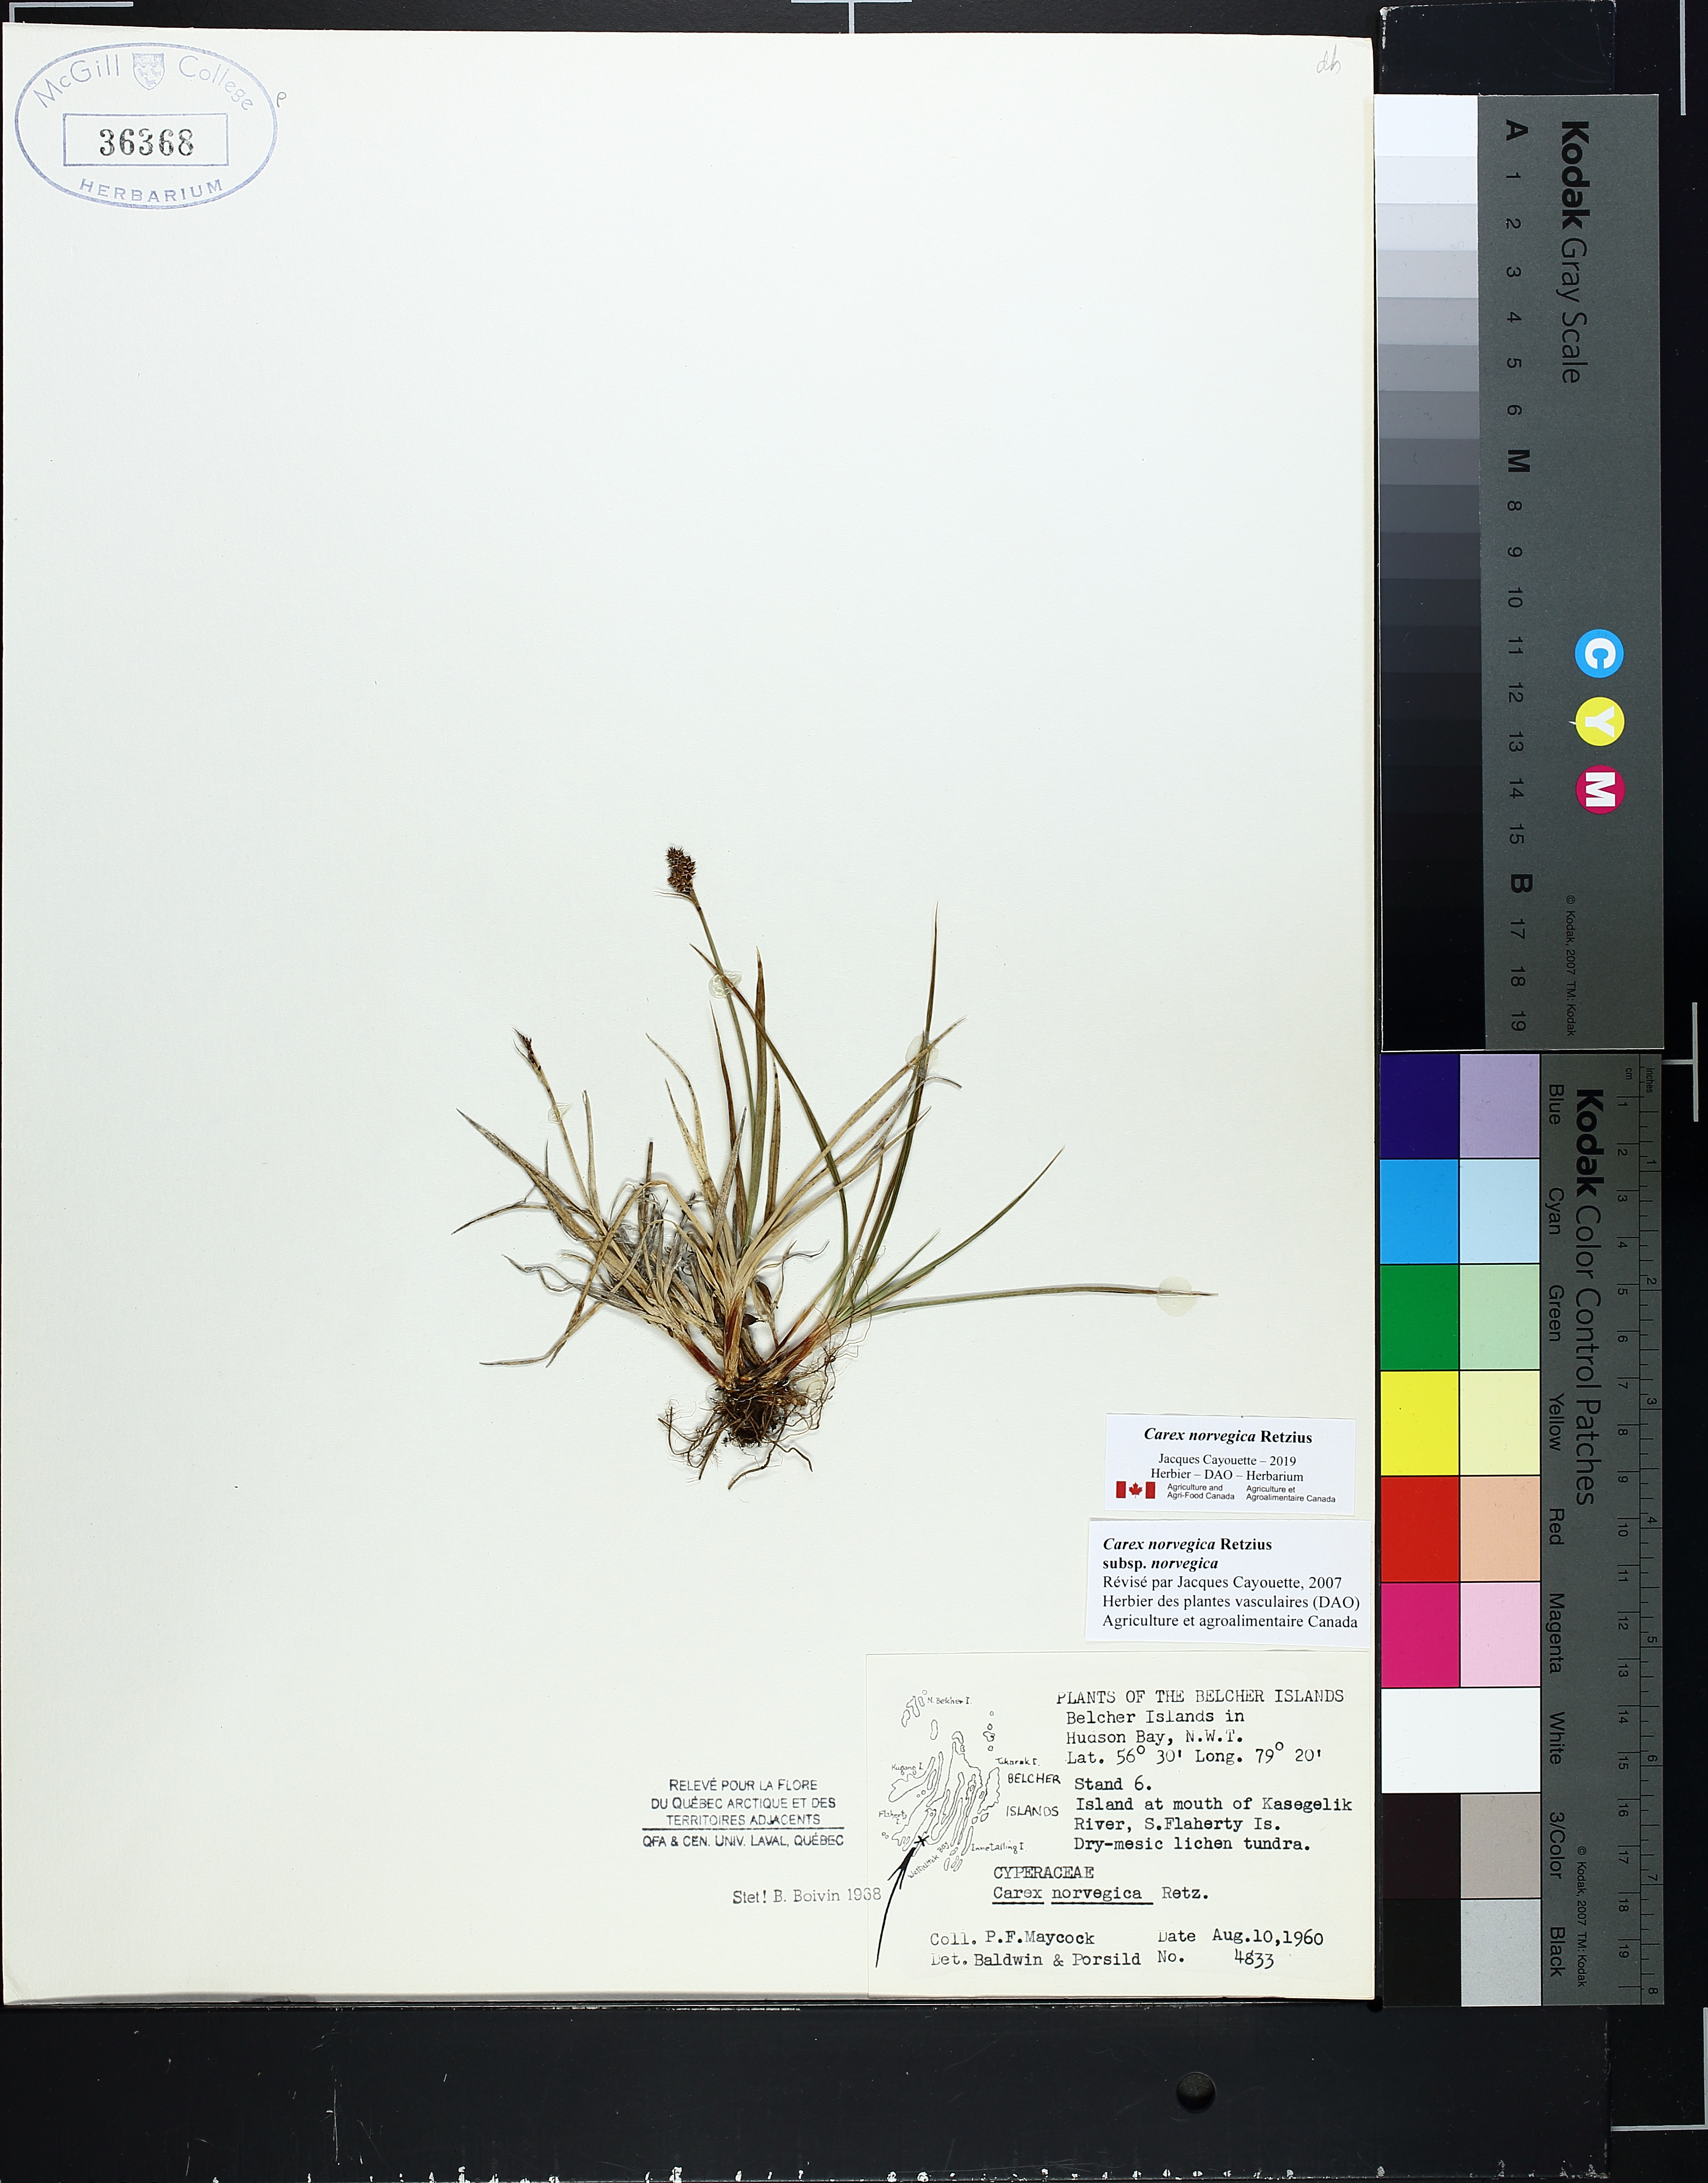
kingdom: Plantae
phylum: Tracheophyta
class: Liliopsida
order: Poales
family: Cyperaceae
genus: Carex
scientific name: Carex norvegica
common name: Close-headed alpine-sedge
